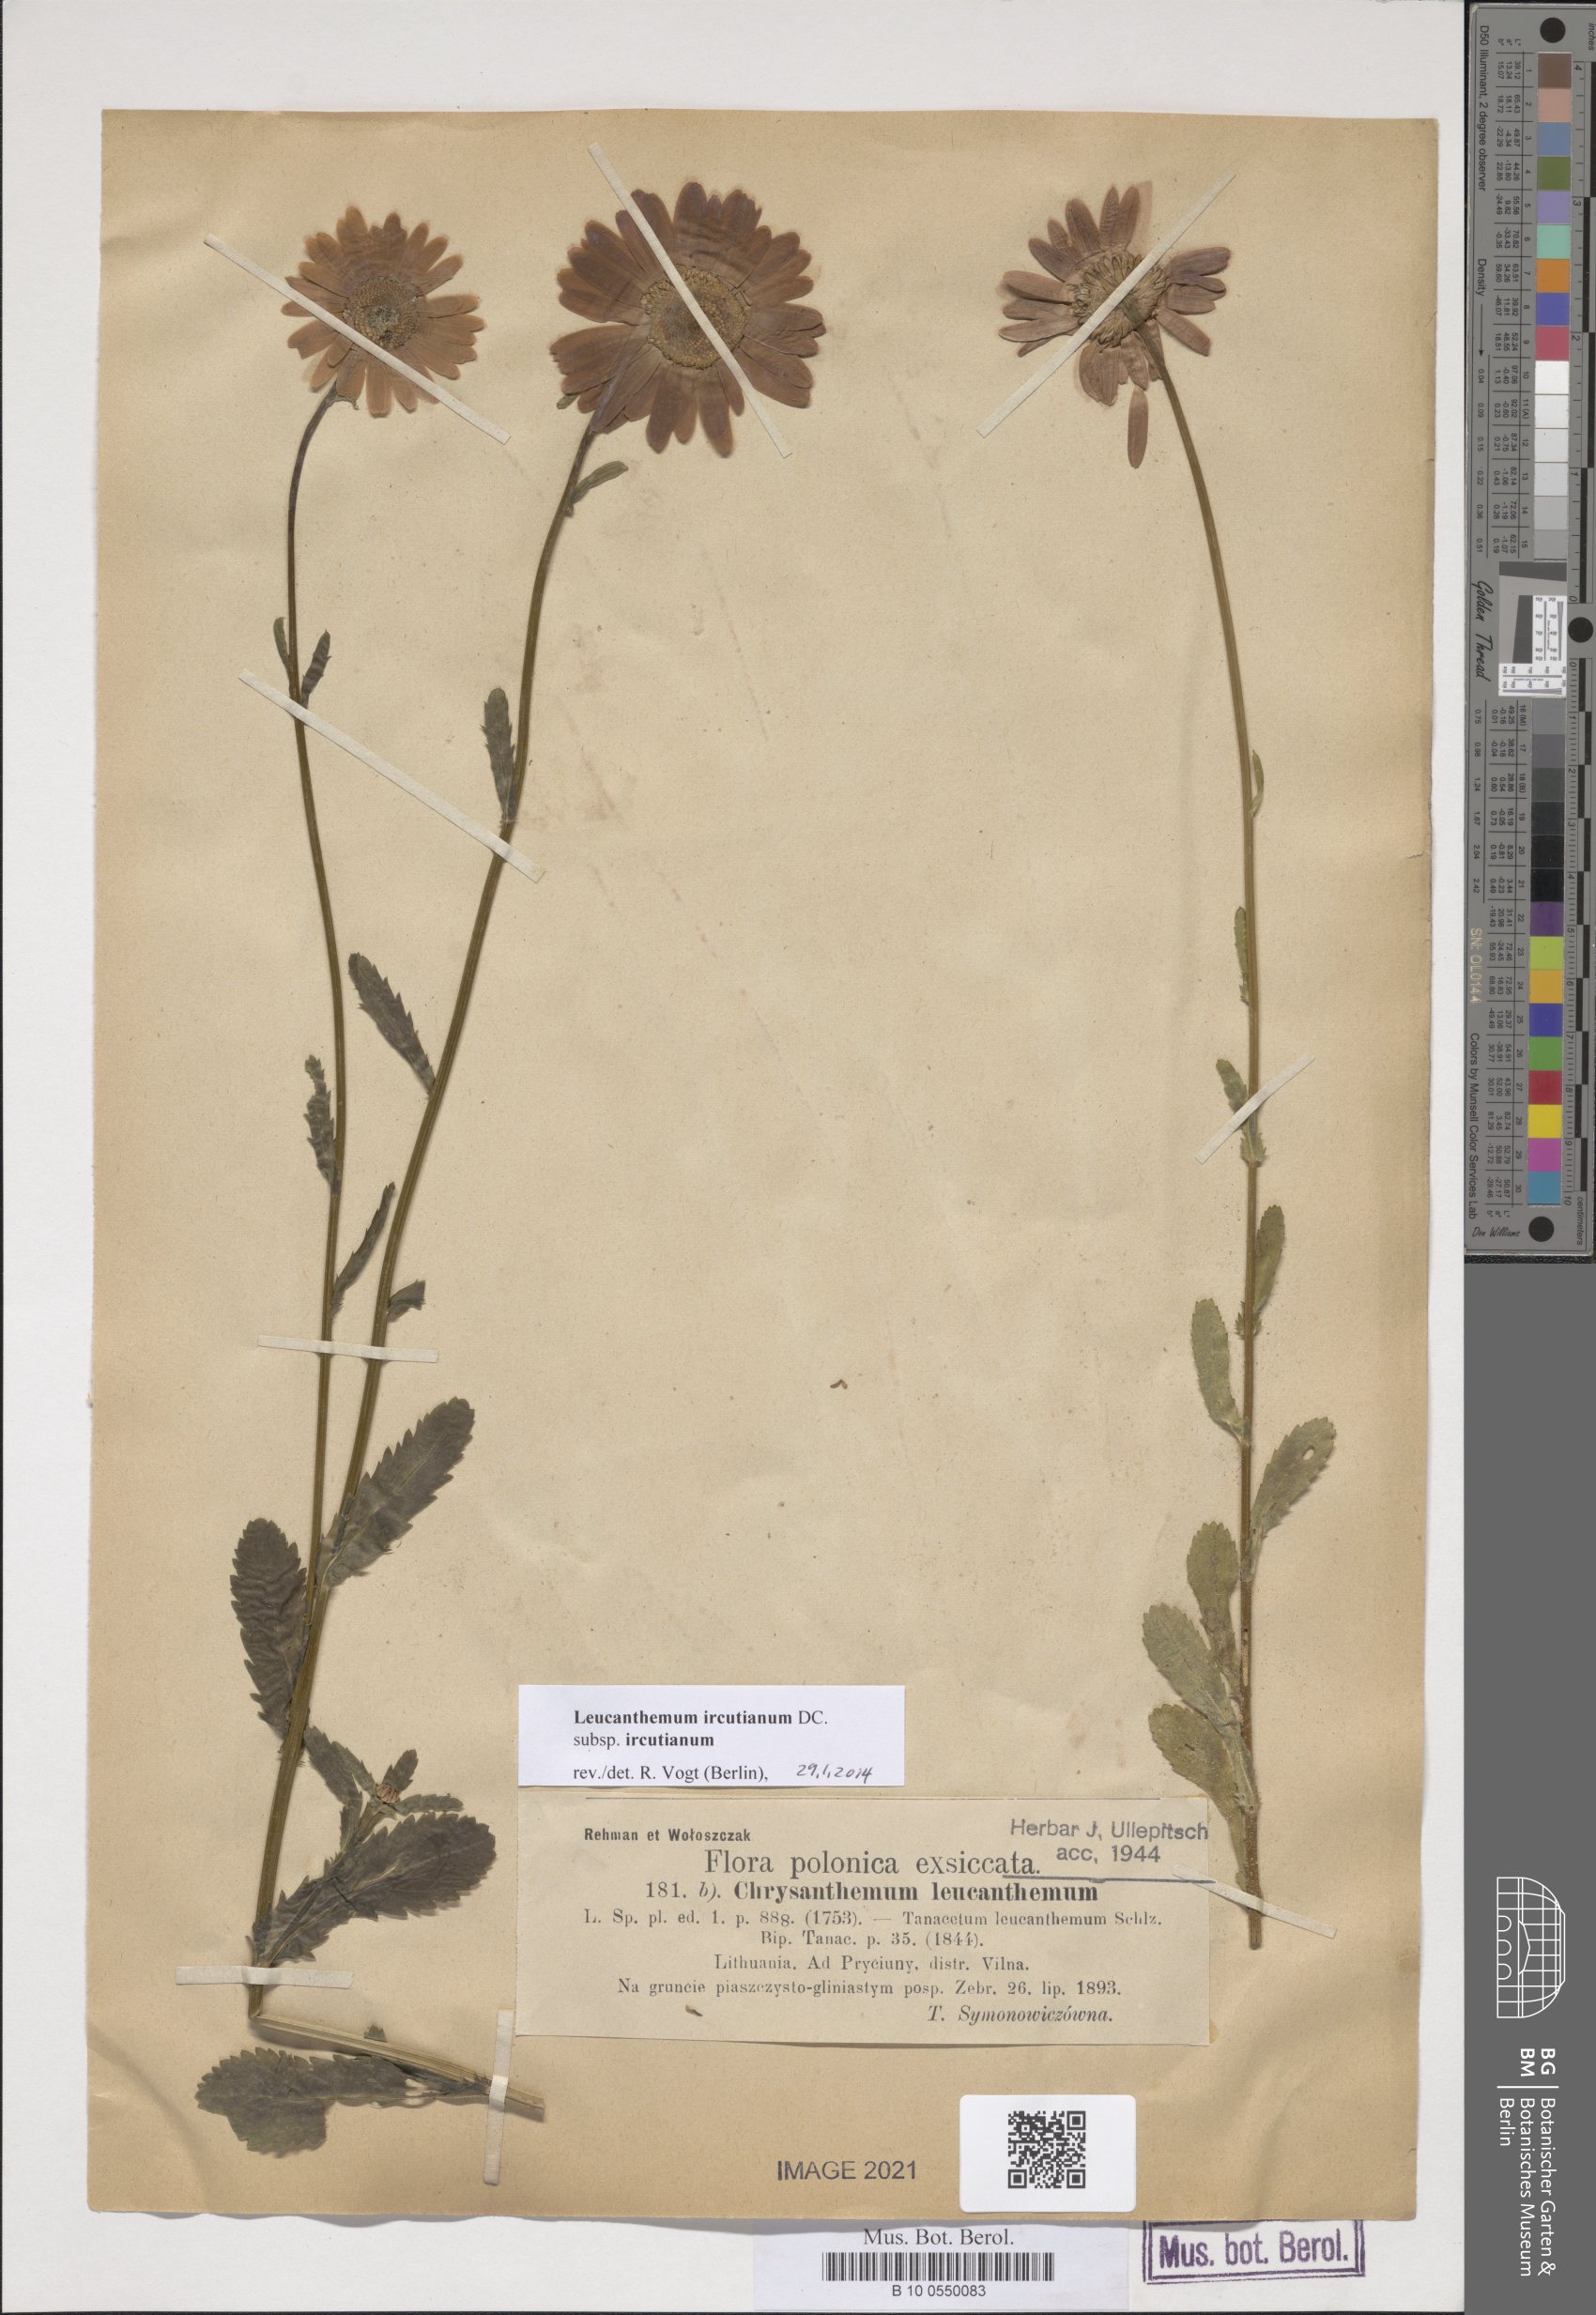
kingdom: Plantae
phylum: Tracheophyta
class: Magnoliopsida
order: Asterales
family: Asteraceae
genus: Leucanthemum
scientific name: Leucanthemum ircutianum
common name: Daisy
